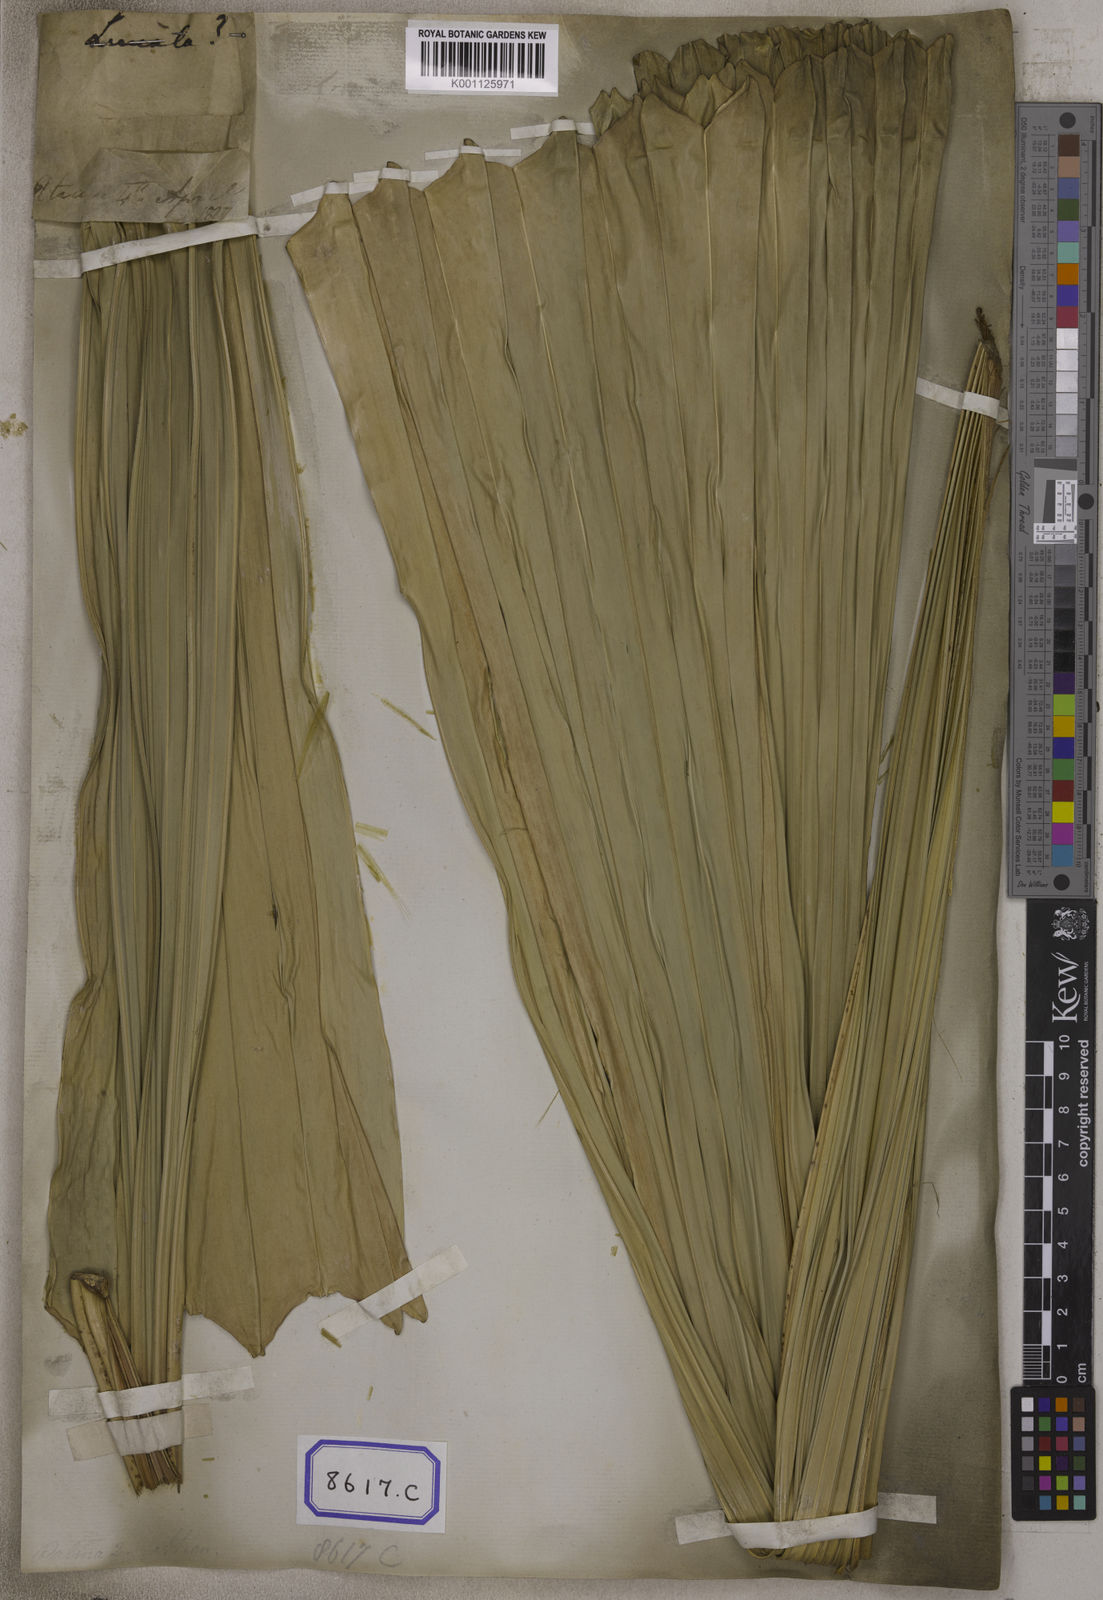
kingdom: Plantae
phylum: Tracheophyta
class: Liliopsida
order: Arecales
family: Arecaceae
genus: Licuala
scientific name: Licuala
